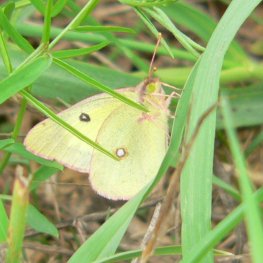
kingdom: Animalia
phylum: Arthropoda
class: Insecta
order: Lepidoptera
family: Pieridae
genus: Colias
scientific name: Colias philodice
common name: Clouded Sulphur
